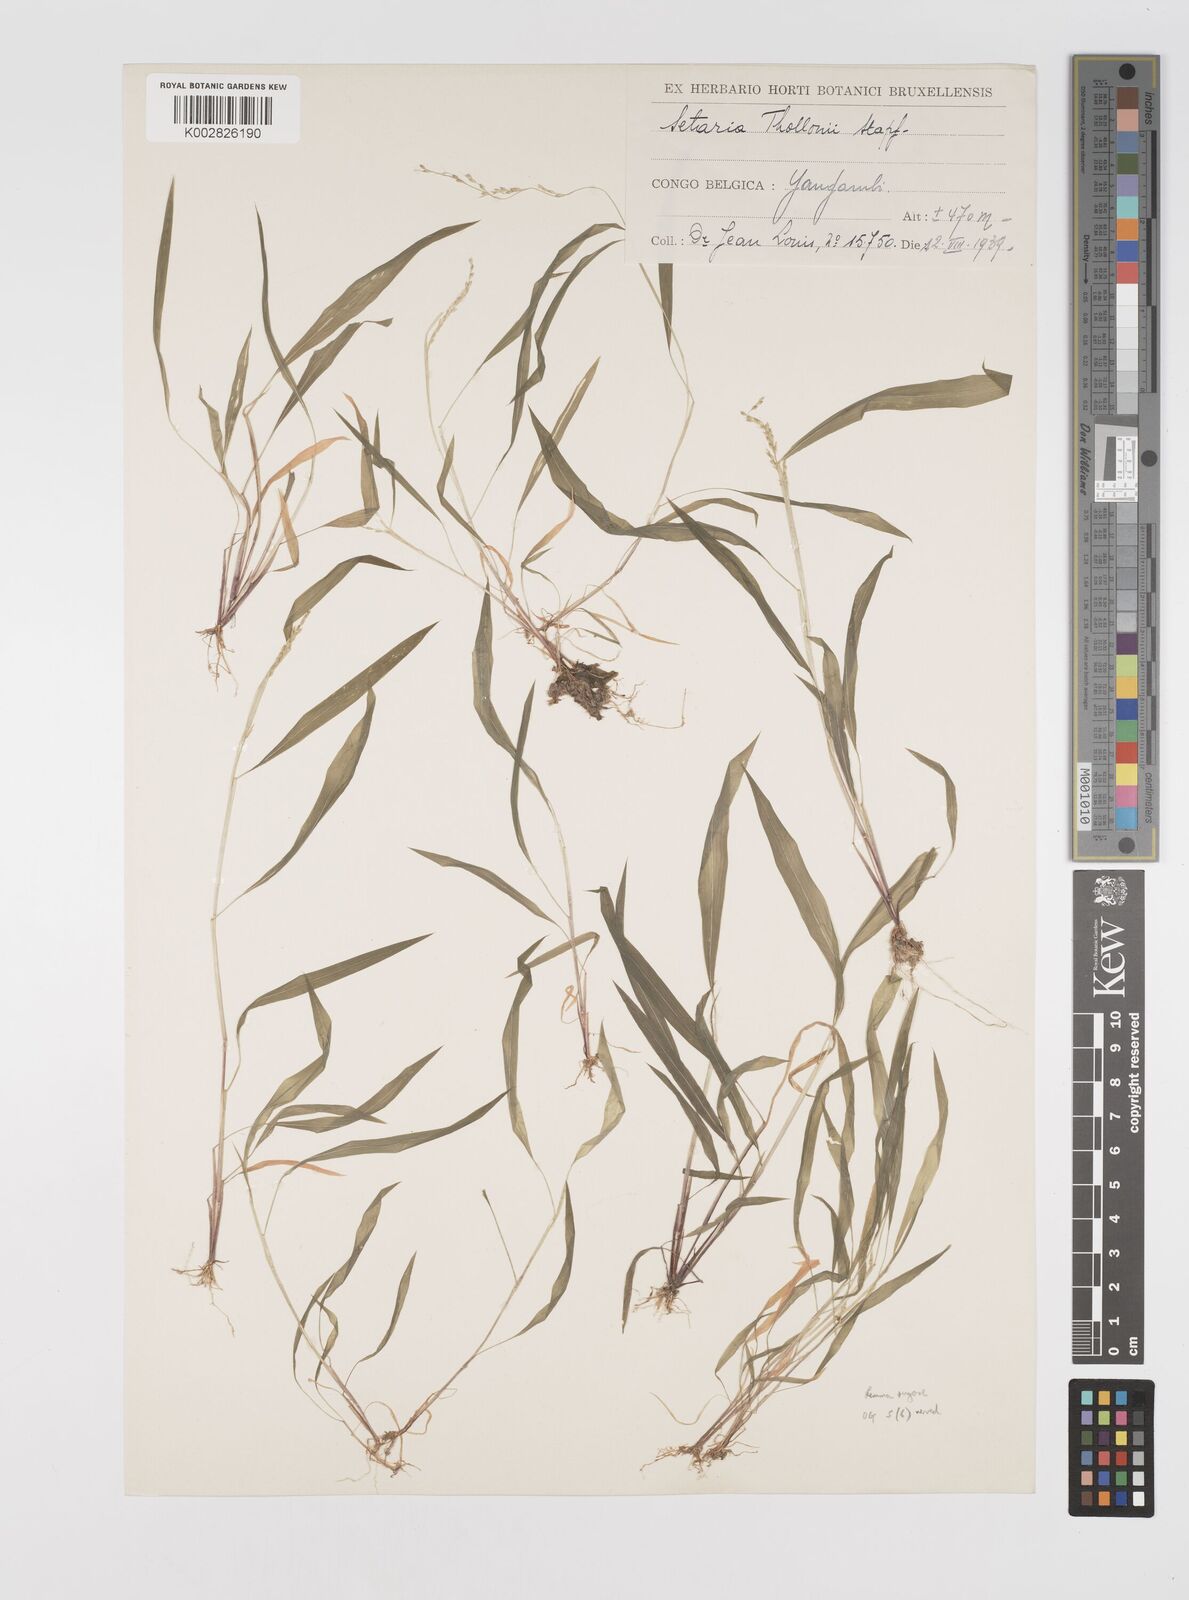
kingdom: Plantae
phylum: Tracheophyta
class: Liliopsida
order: Poales
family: Poaceae
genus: Setaria
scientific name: Setaria homonyma
